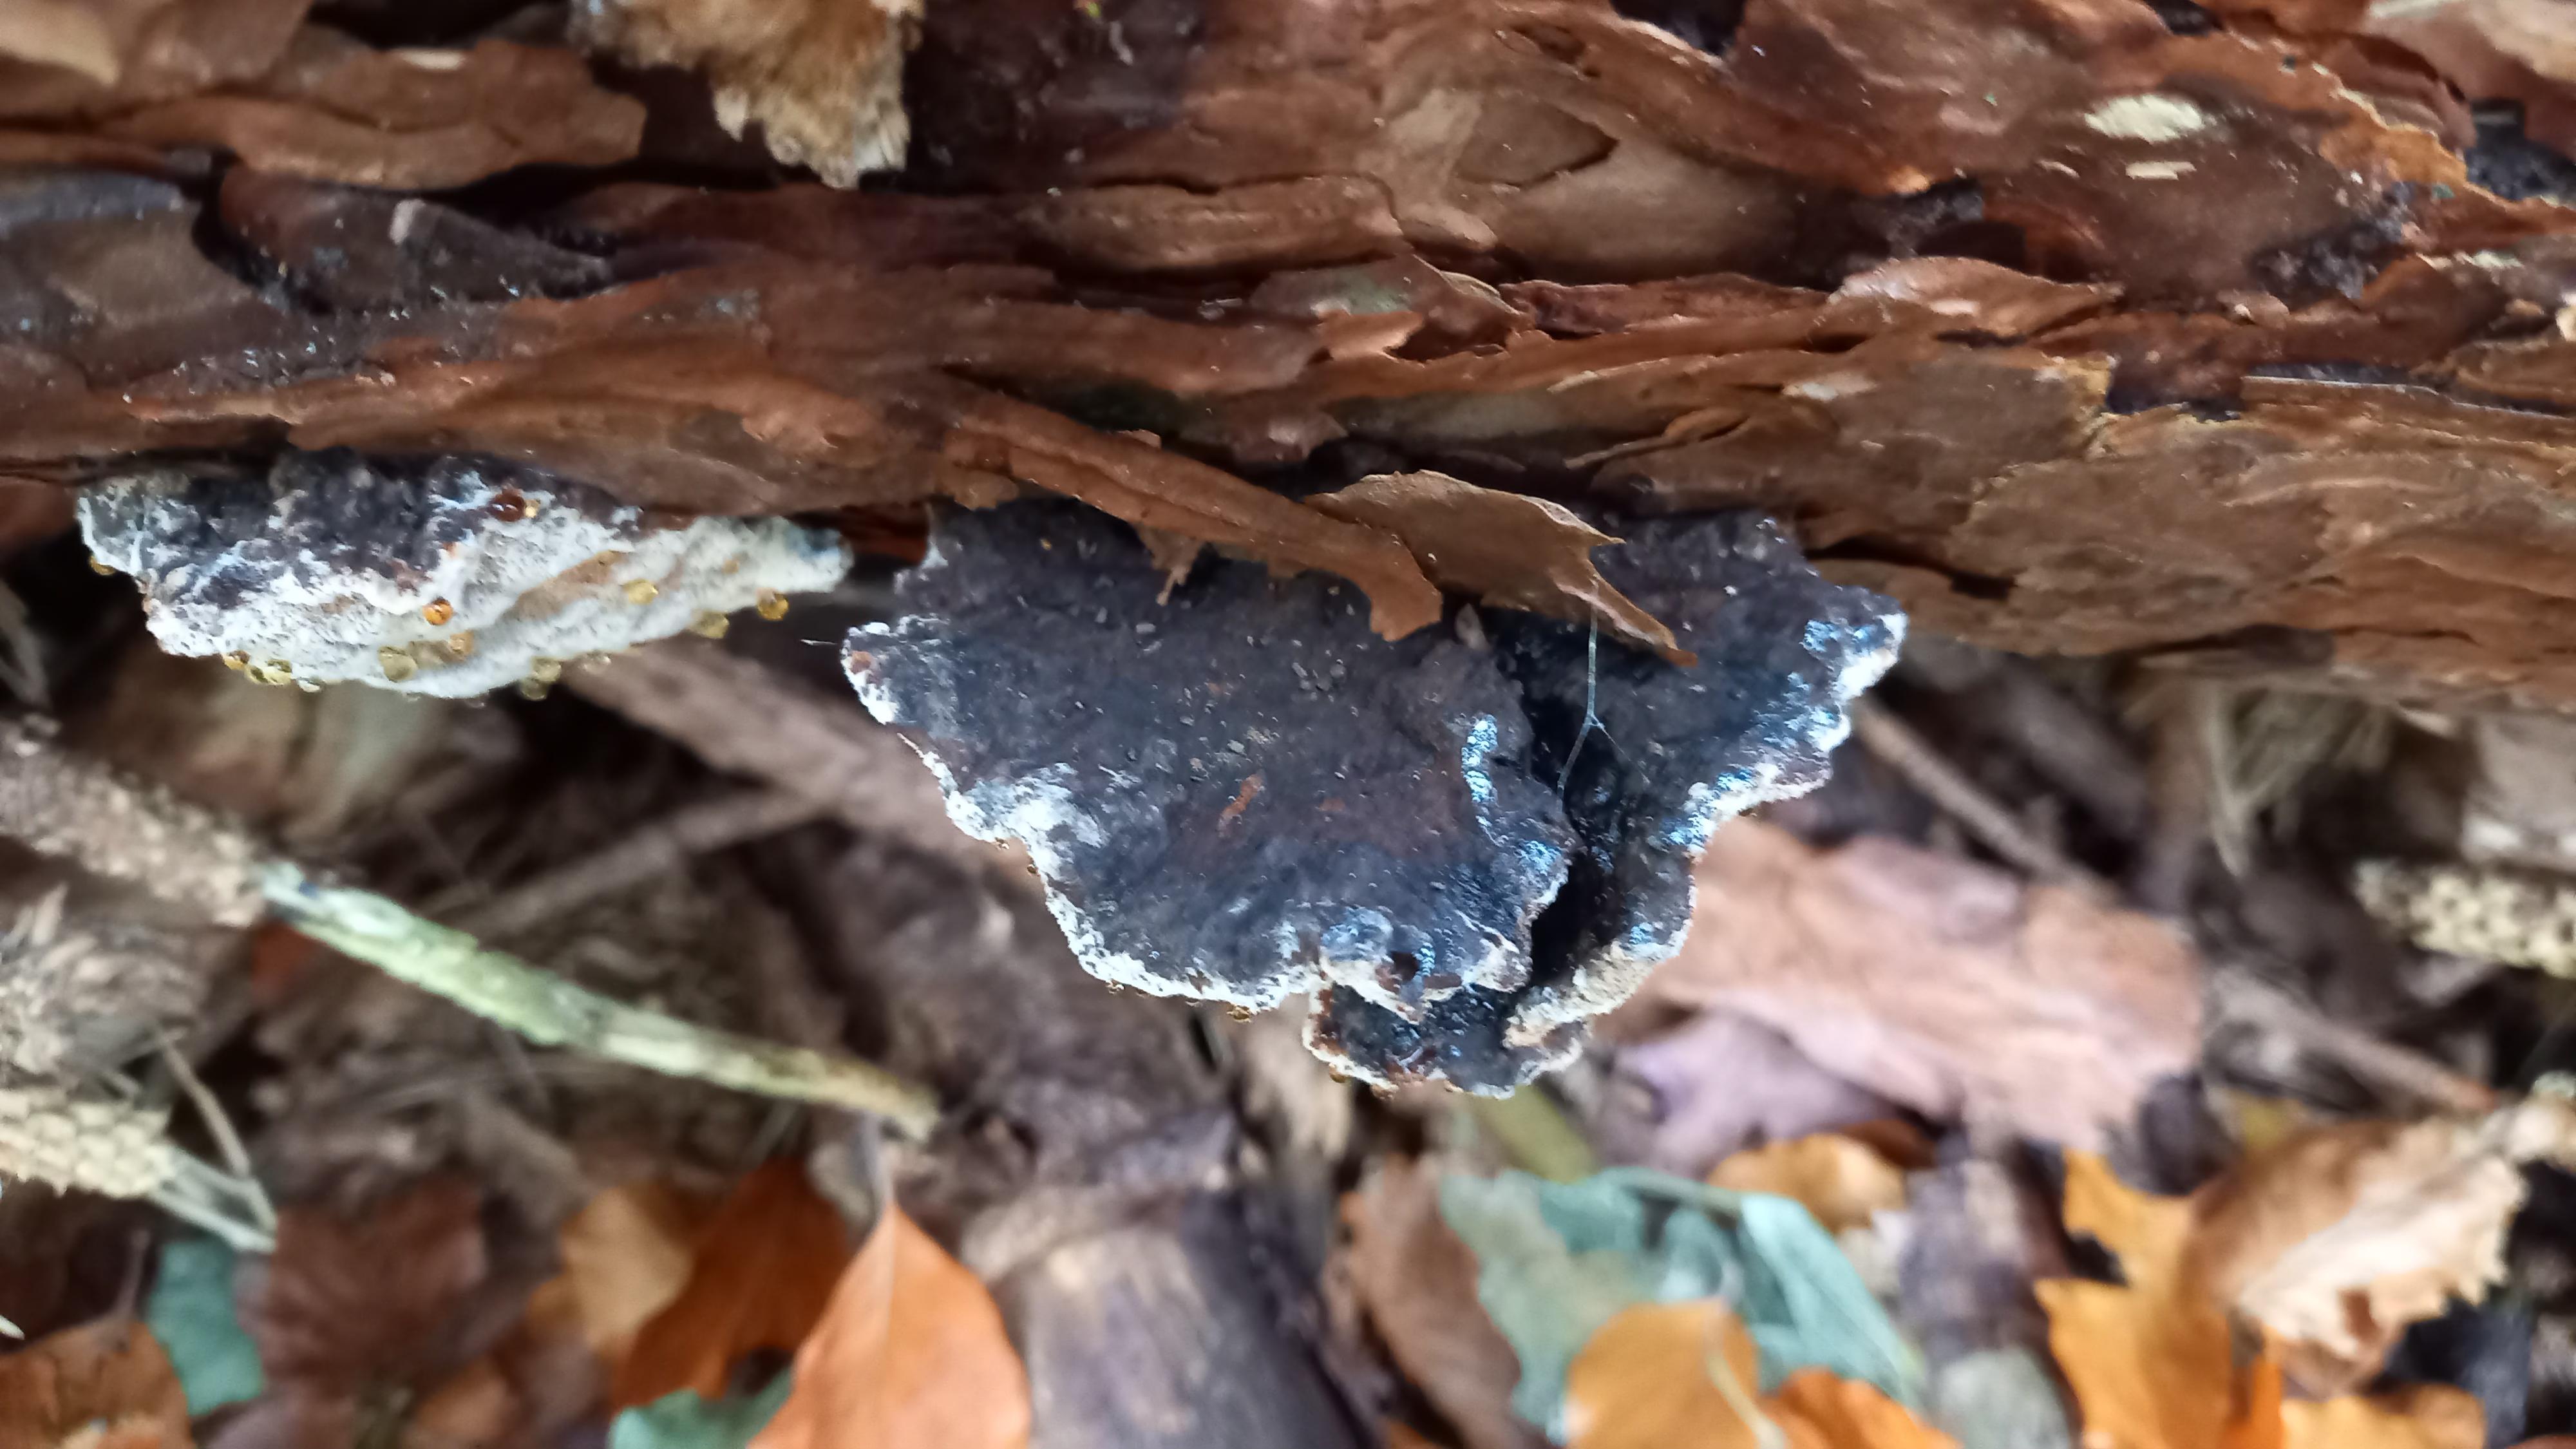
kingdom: Fungi
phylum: Basidiomycota
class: Agaricomycetes
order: Polyporales
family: Ischnodermataceae
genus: Ischnoderma
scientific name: Ischnoderma benzoinum
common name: gran-tjæreporesvamp
